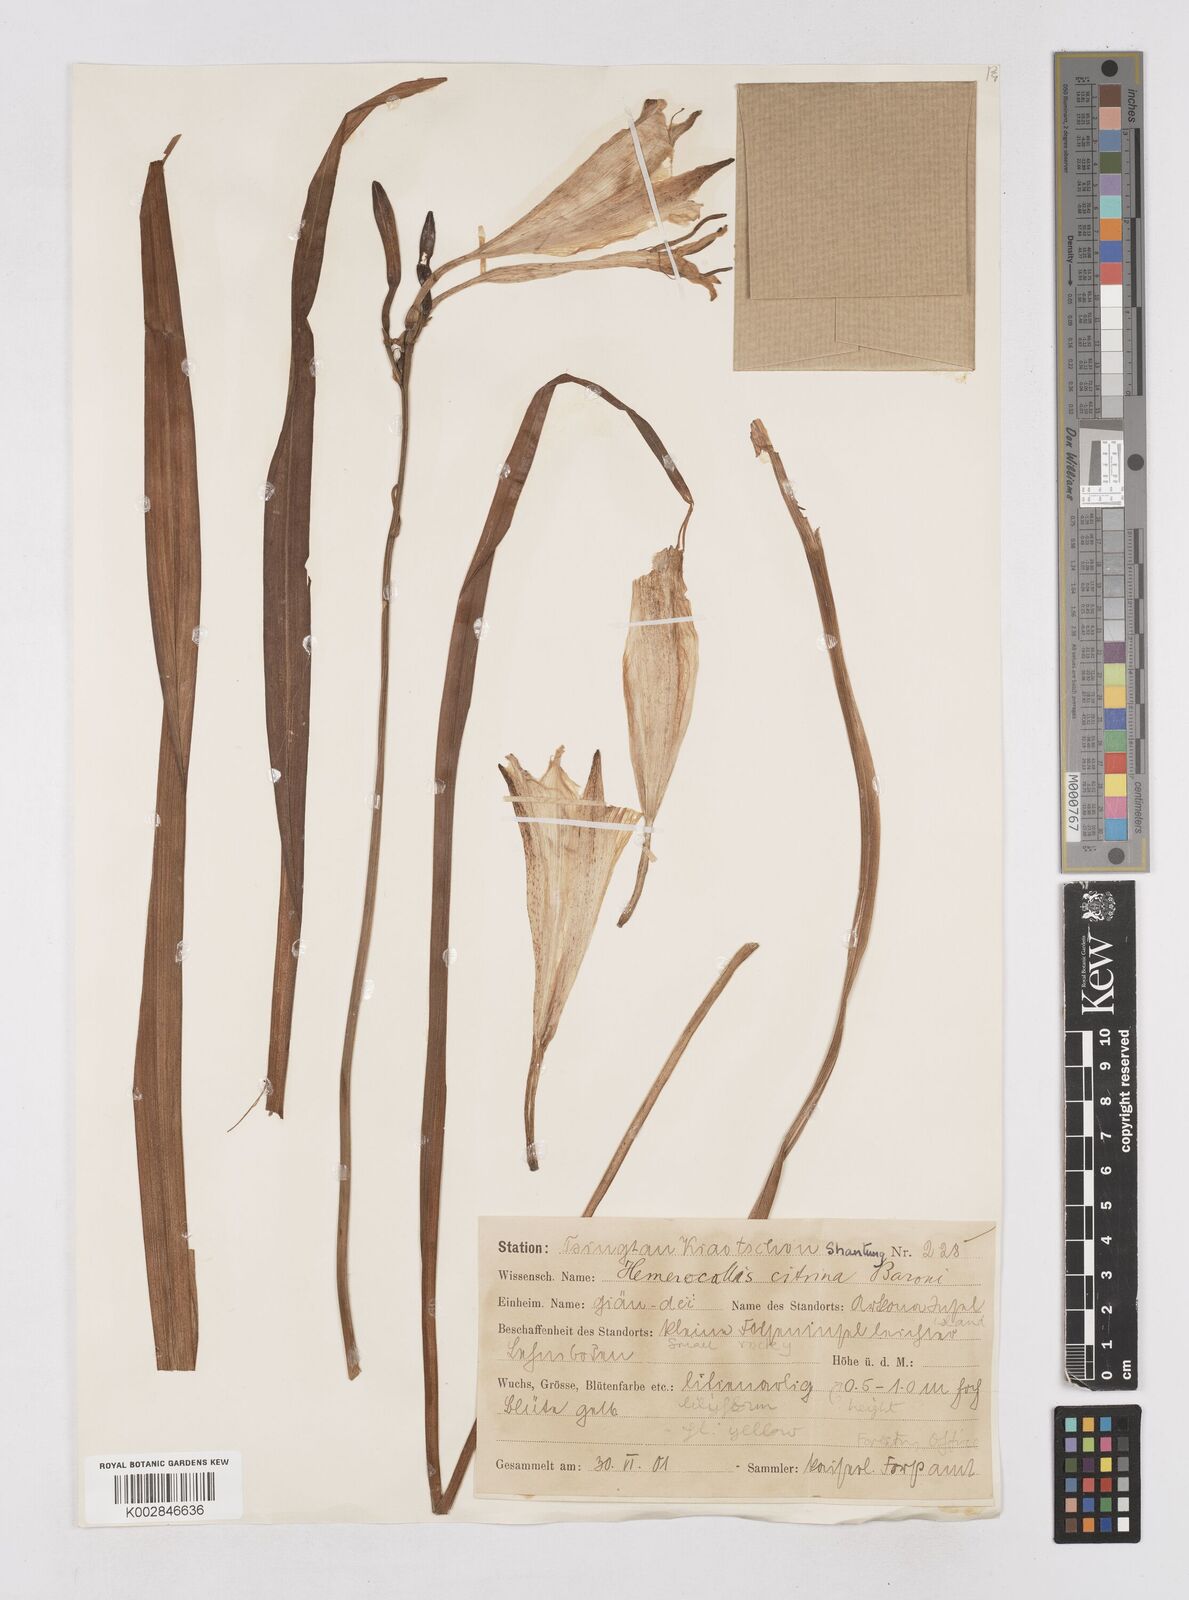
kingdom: Plantae
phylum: Tracheophyta
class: Liliopsida
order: Asparagales
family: Asphodelaceae
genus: Hemerocallis
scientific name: Hemerocallis
